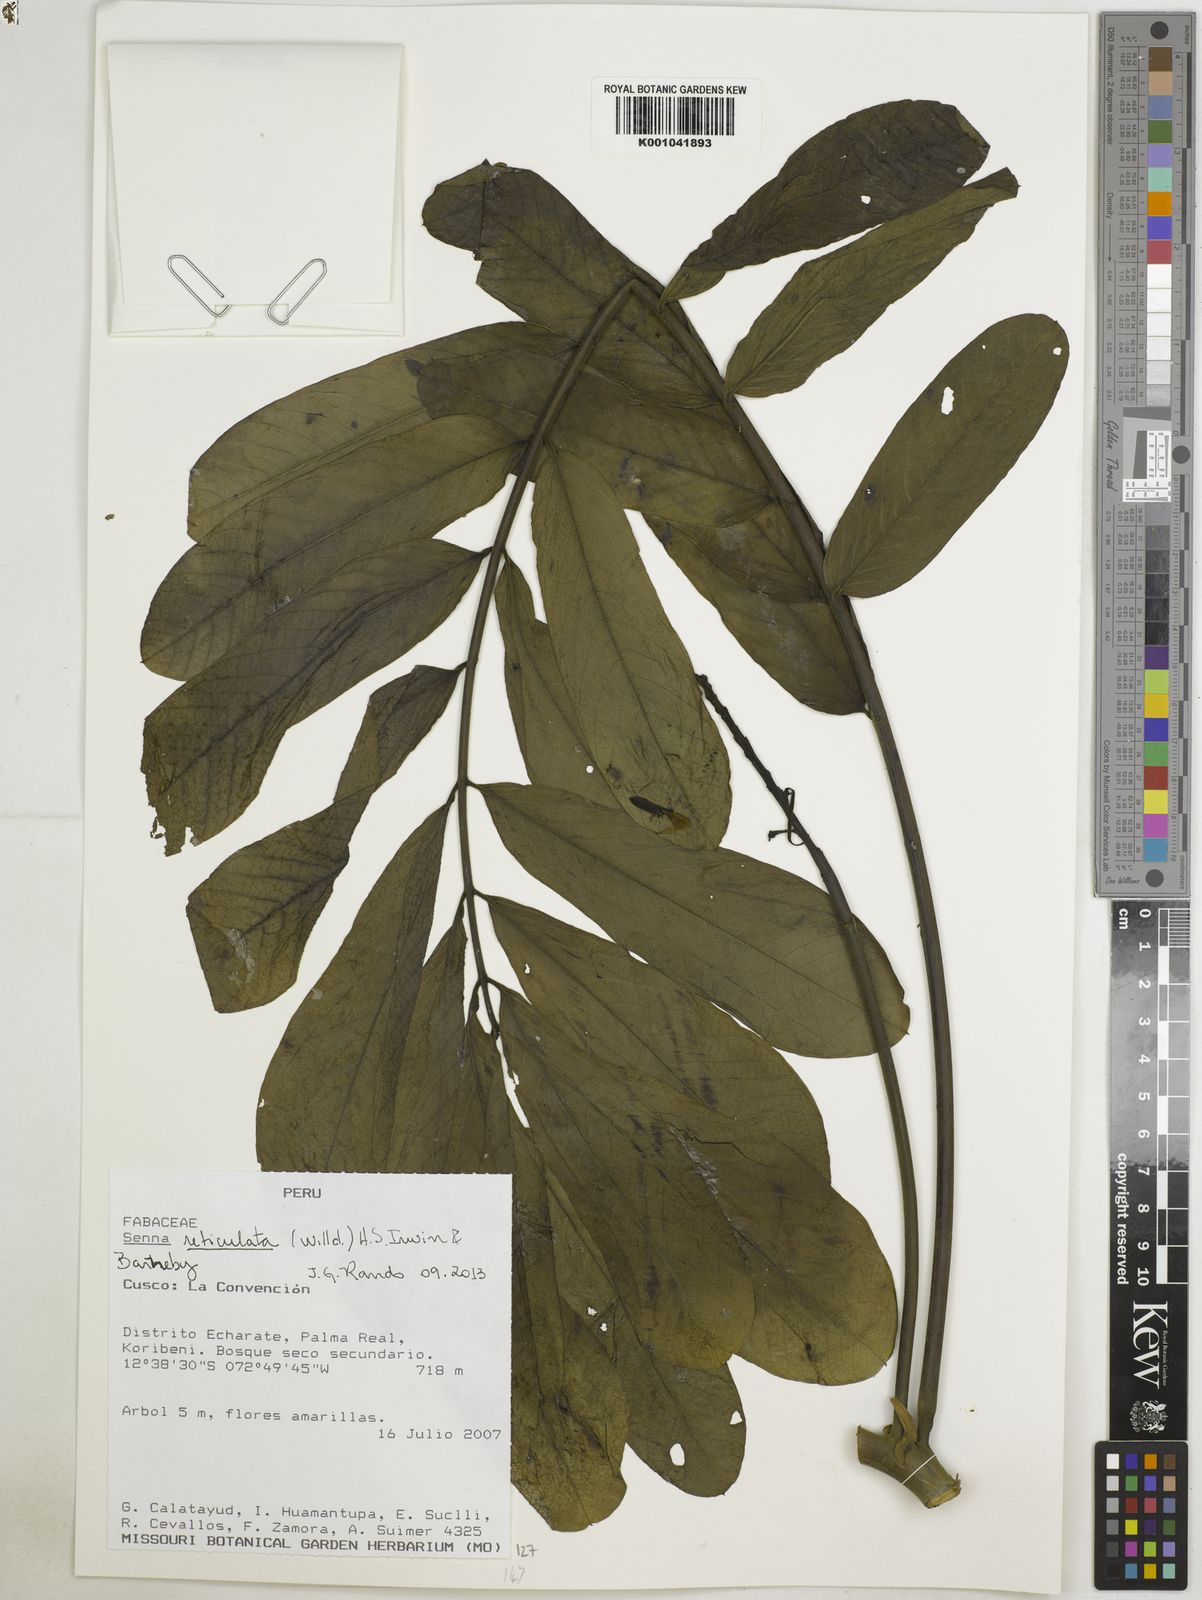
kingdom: Plantae
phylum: Tracheophyta
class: Magnoliopsida
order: Fabales
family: Fabaceae
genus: Senna
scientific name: Senna reticulata
